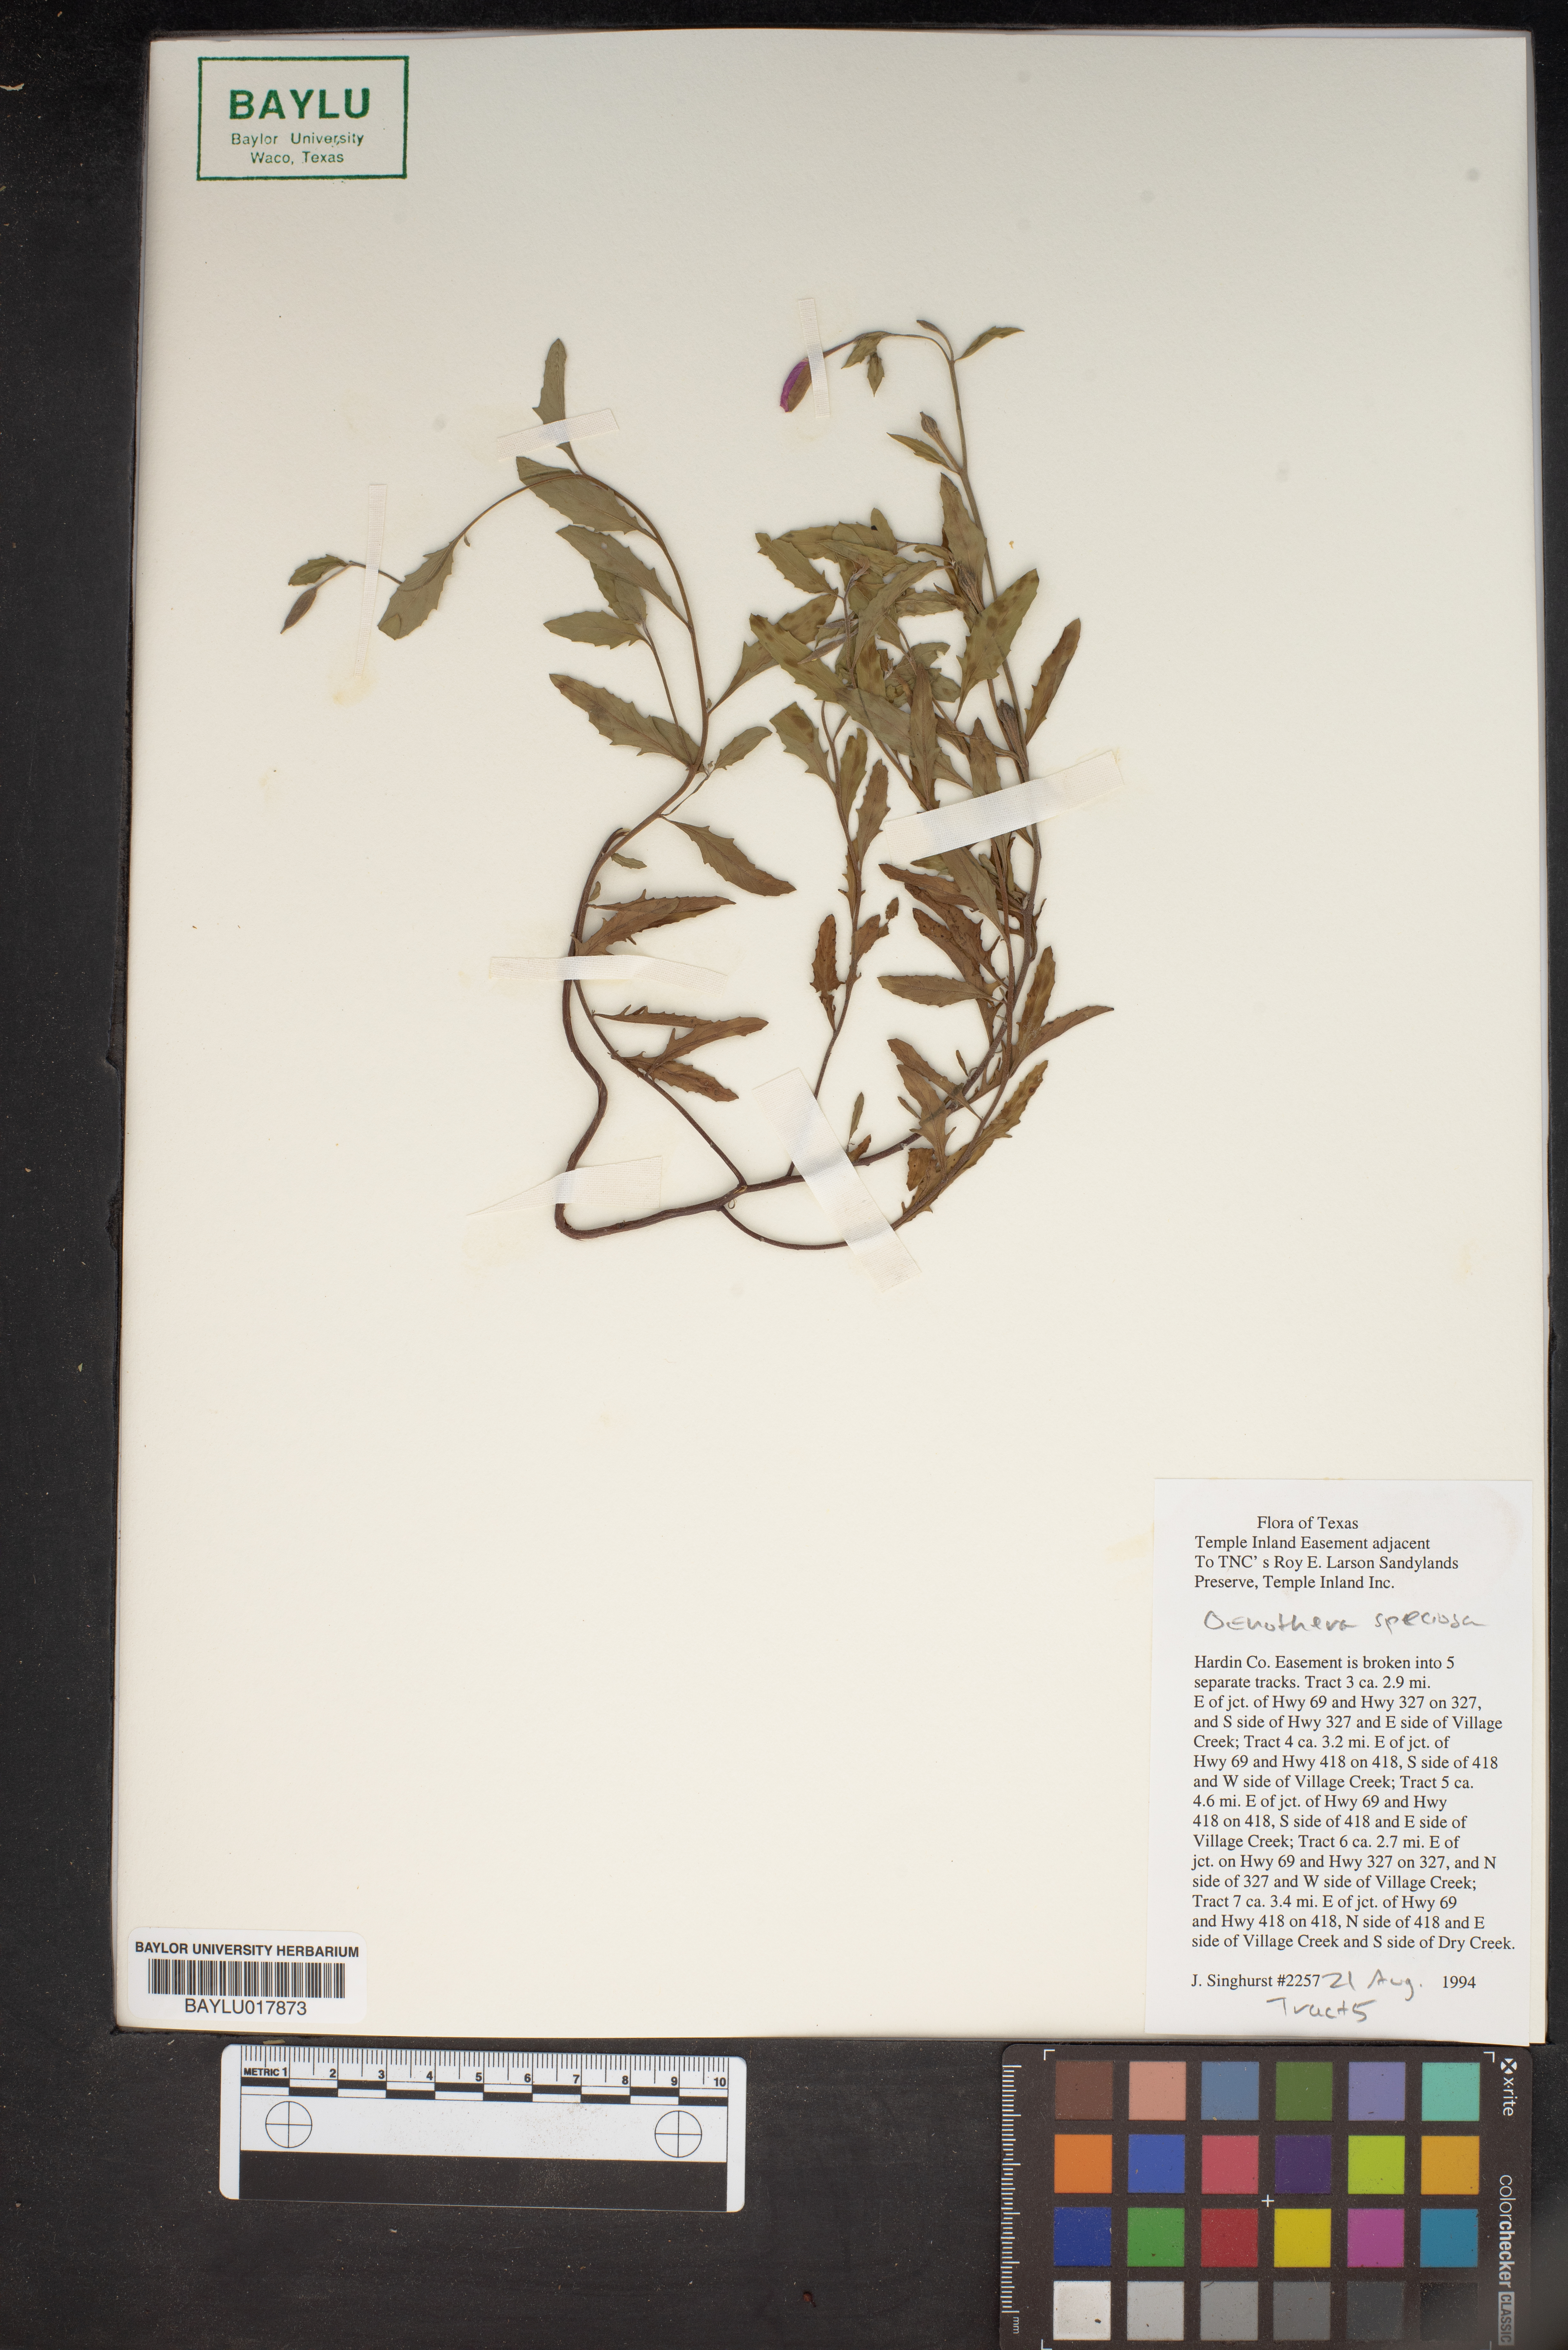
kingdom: Plantae
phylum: Tracheophyta
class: Magnoliopsida
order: Myrtales
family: Onagraceae
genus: Oenothera
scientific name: Oenothera speciosa
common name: White evening-primrose
